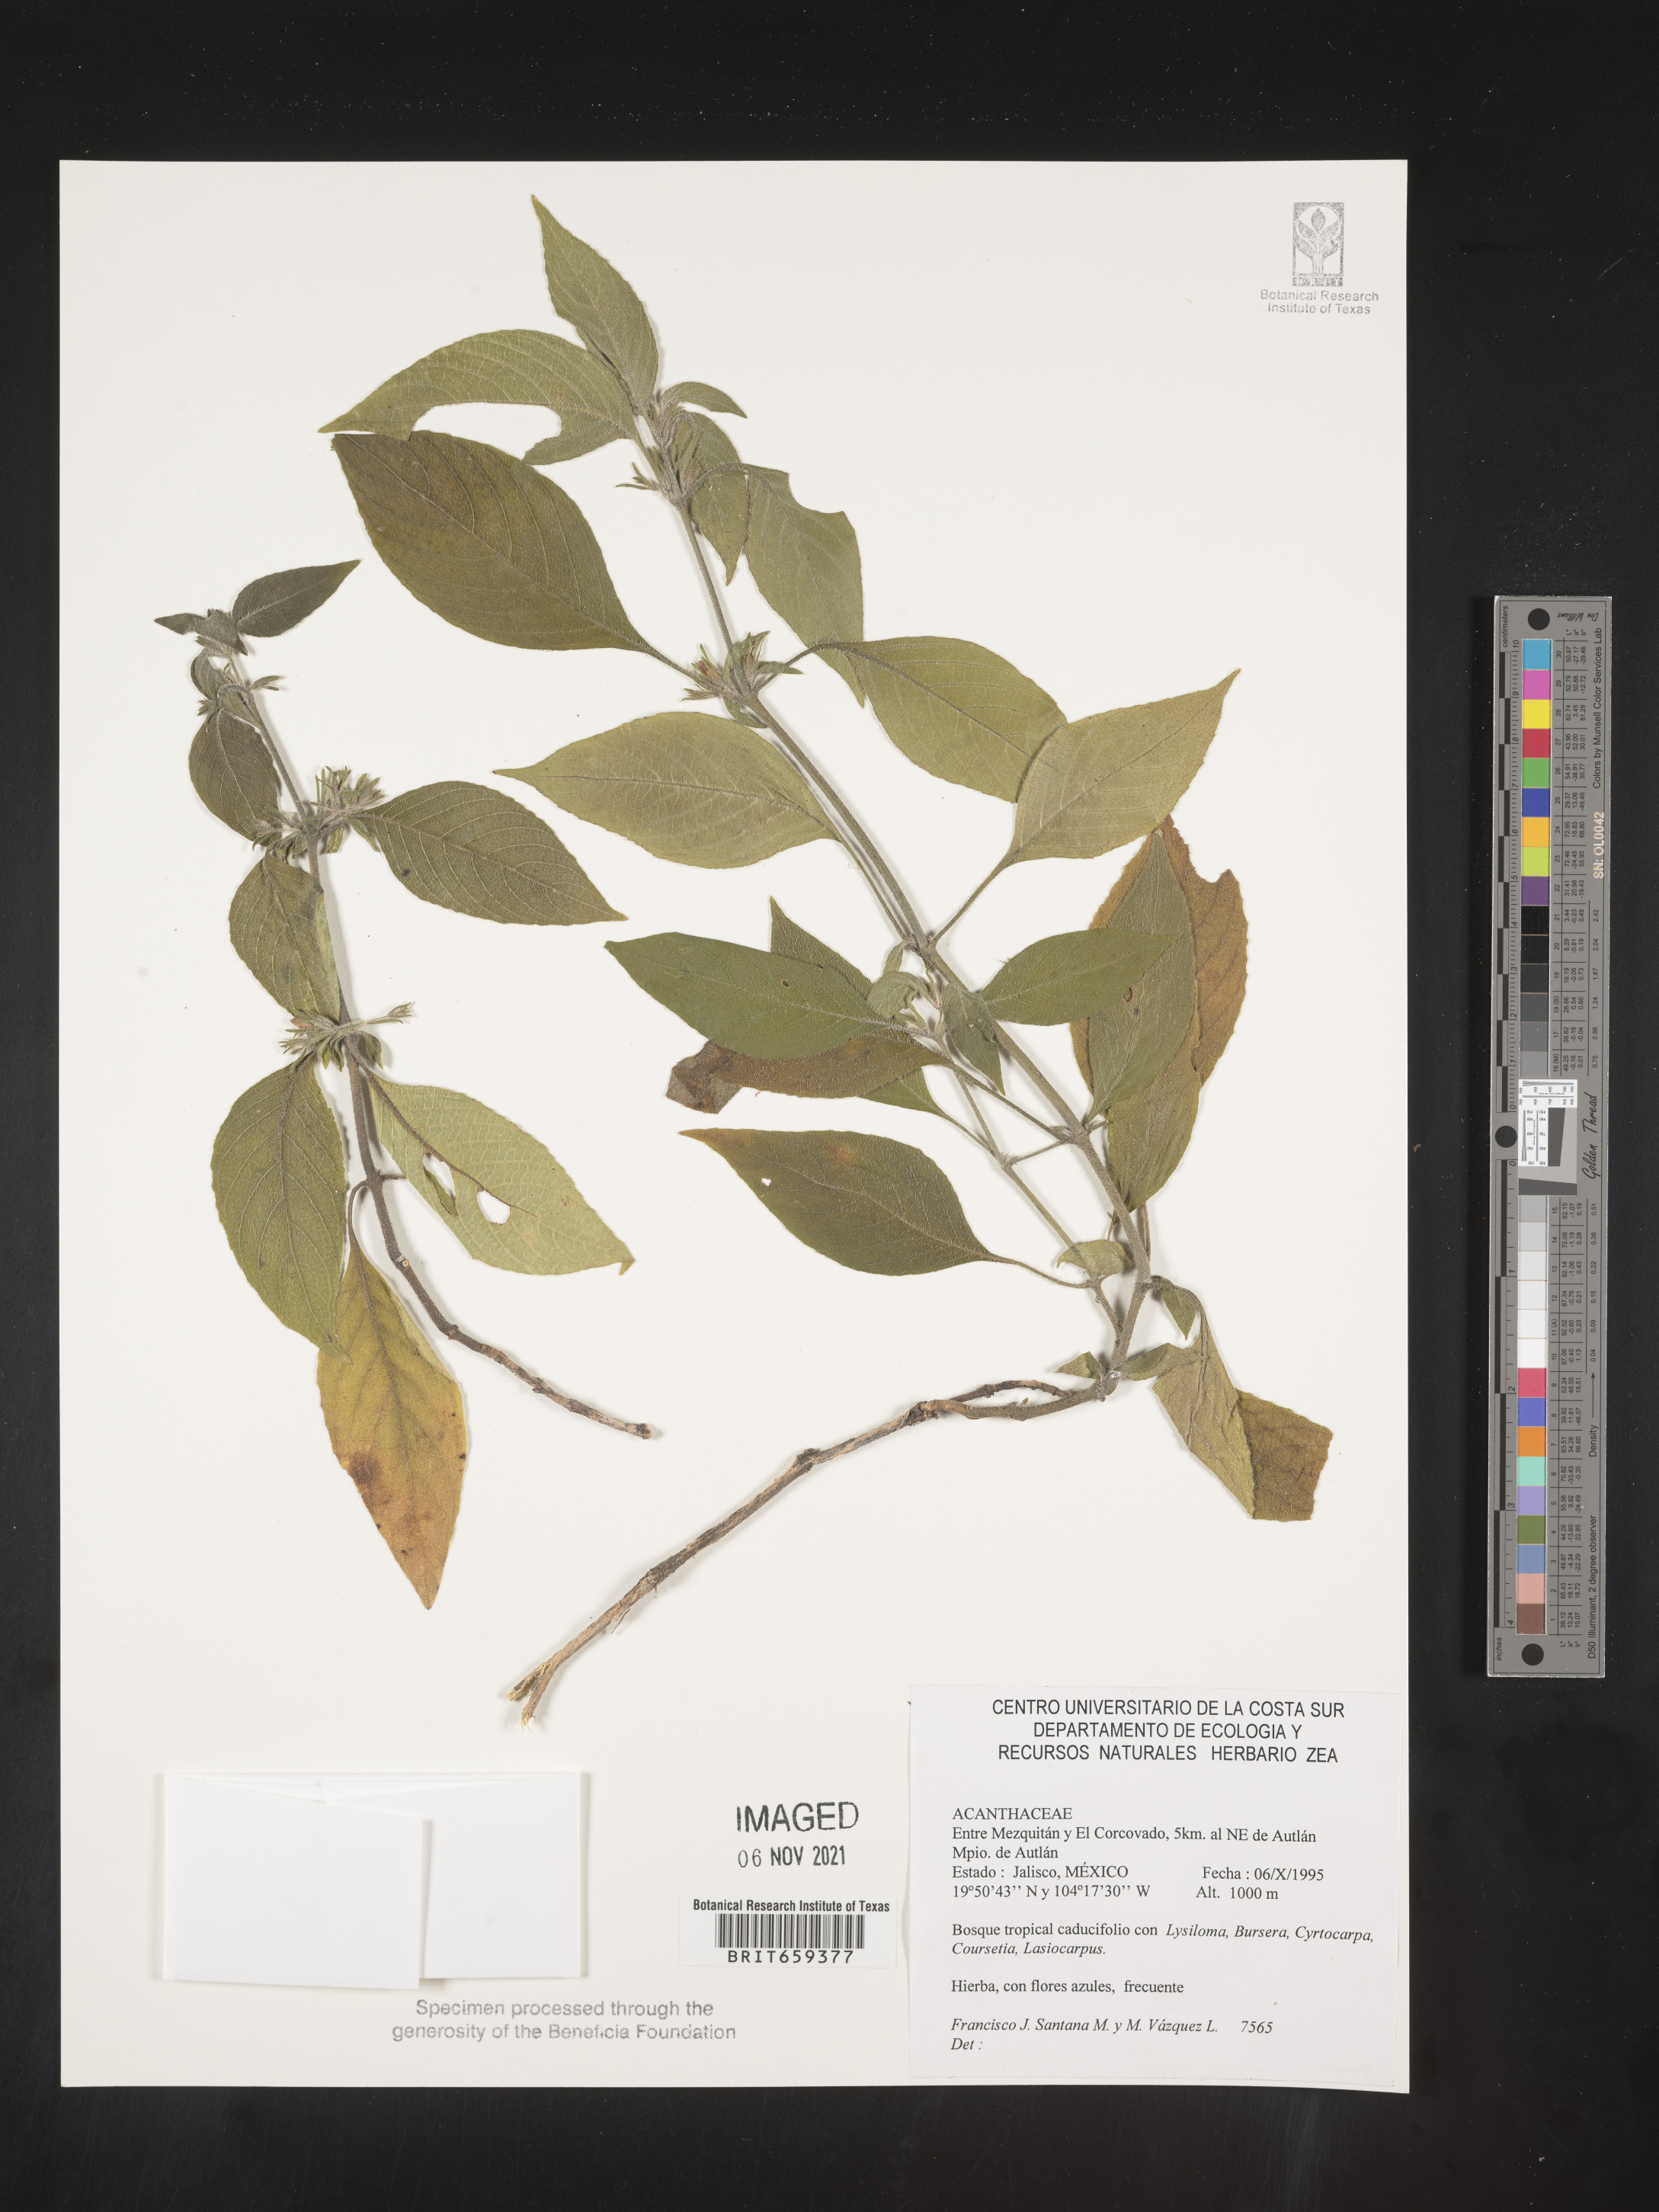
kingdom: Plantae
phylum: Tracheophyta
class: Magnoliopsida
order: Lamiales
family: Acanthaceae
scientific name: Acanthaceae
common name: Acanthaceae
